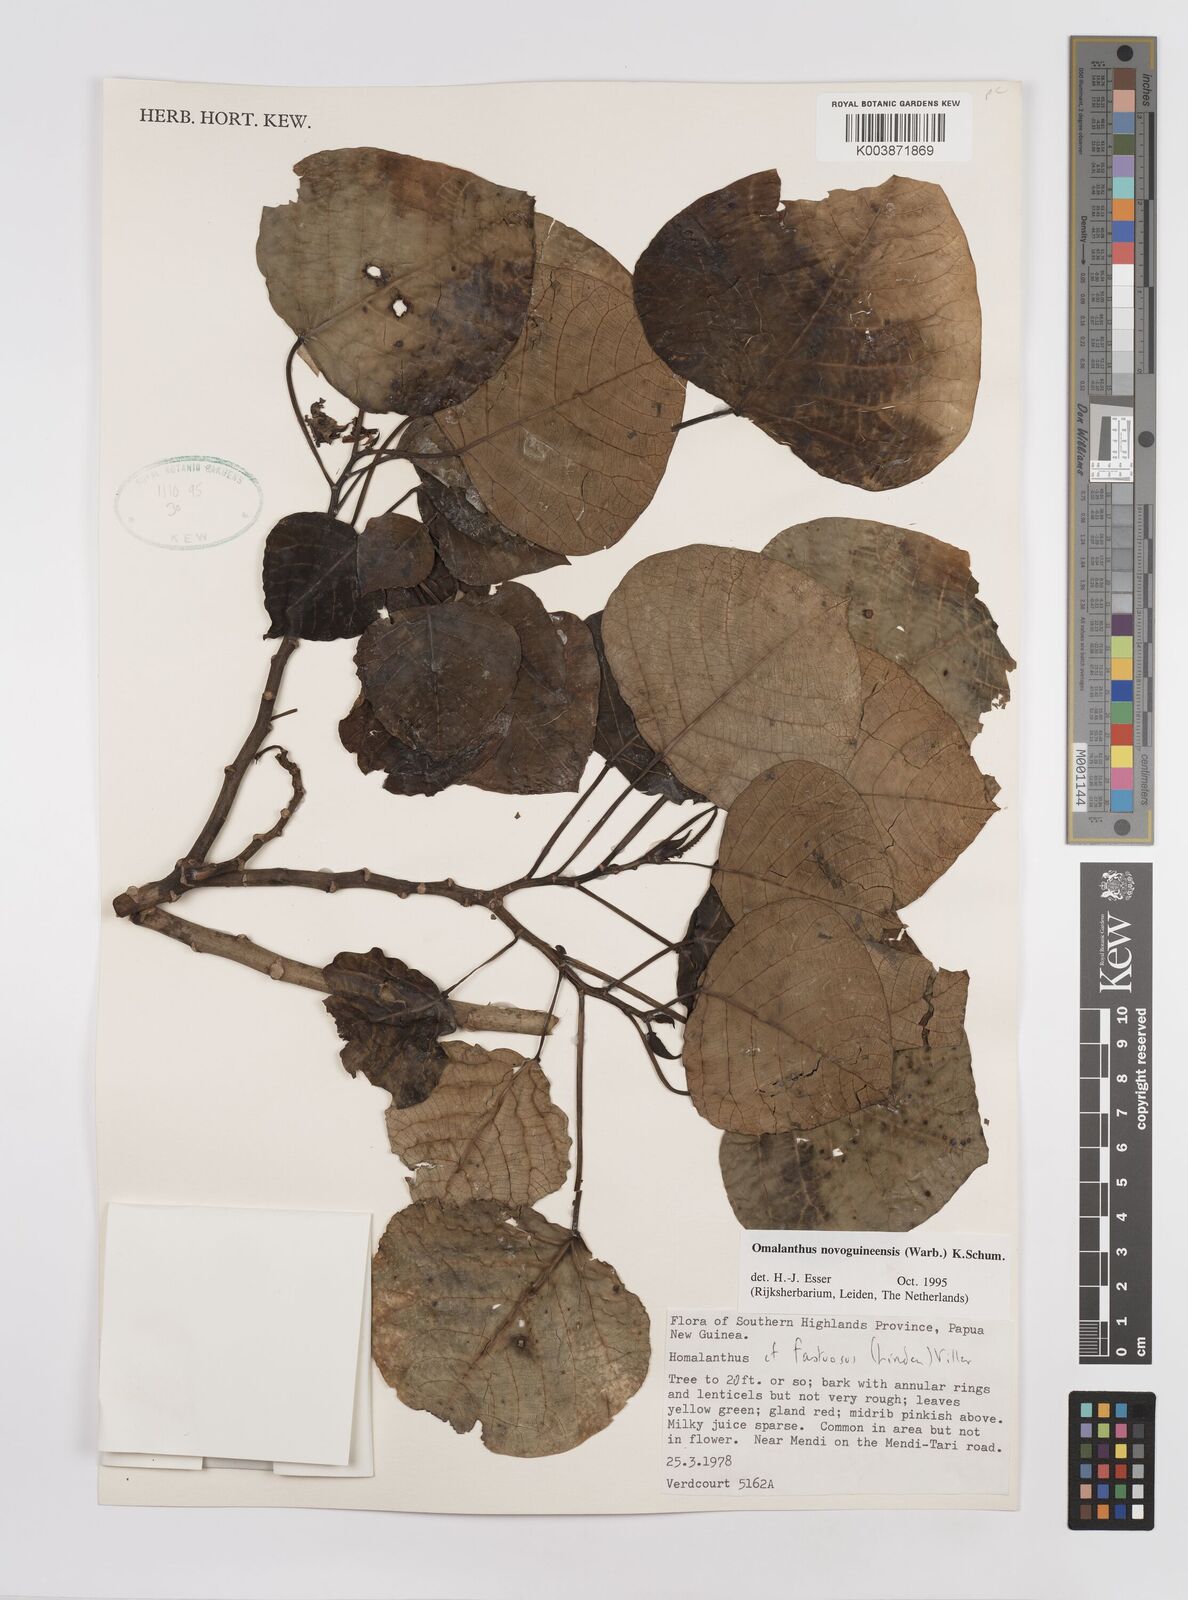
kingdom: Plantae
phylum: Tracheophyta
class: Magnoliopsida
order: Malpighiales
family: Euphorbiaceae
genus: Homalanthus
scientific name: Homalanthus novoguineensis
